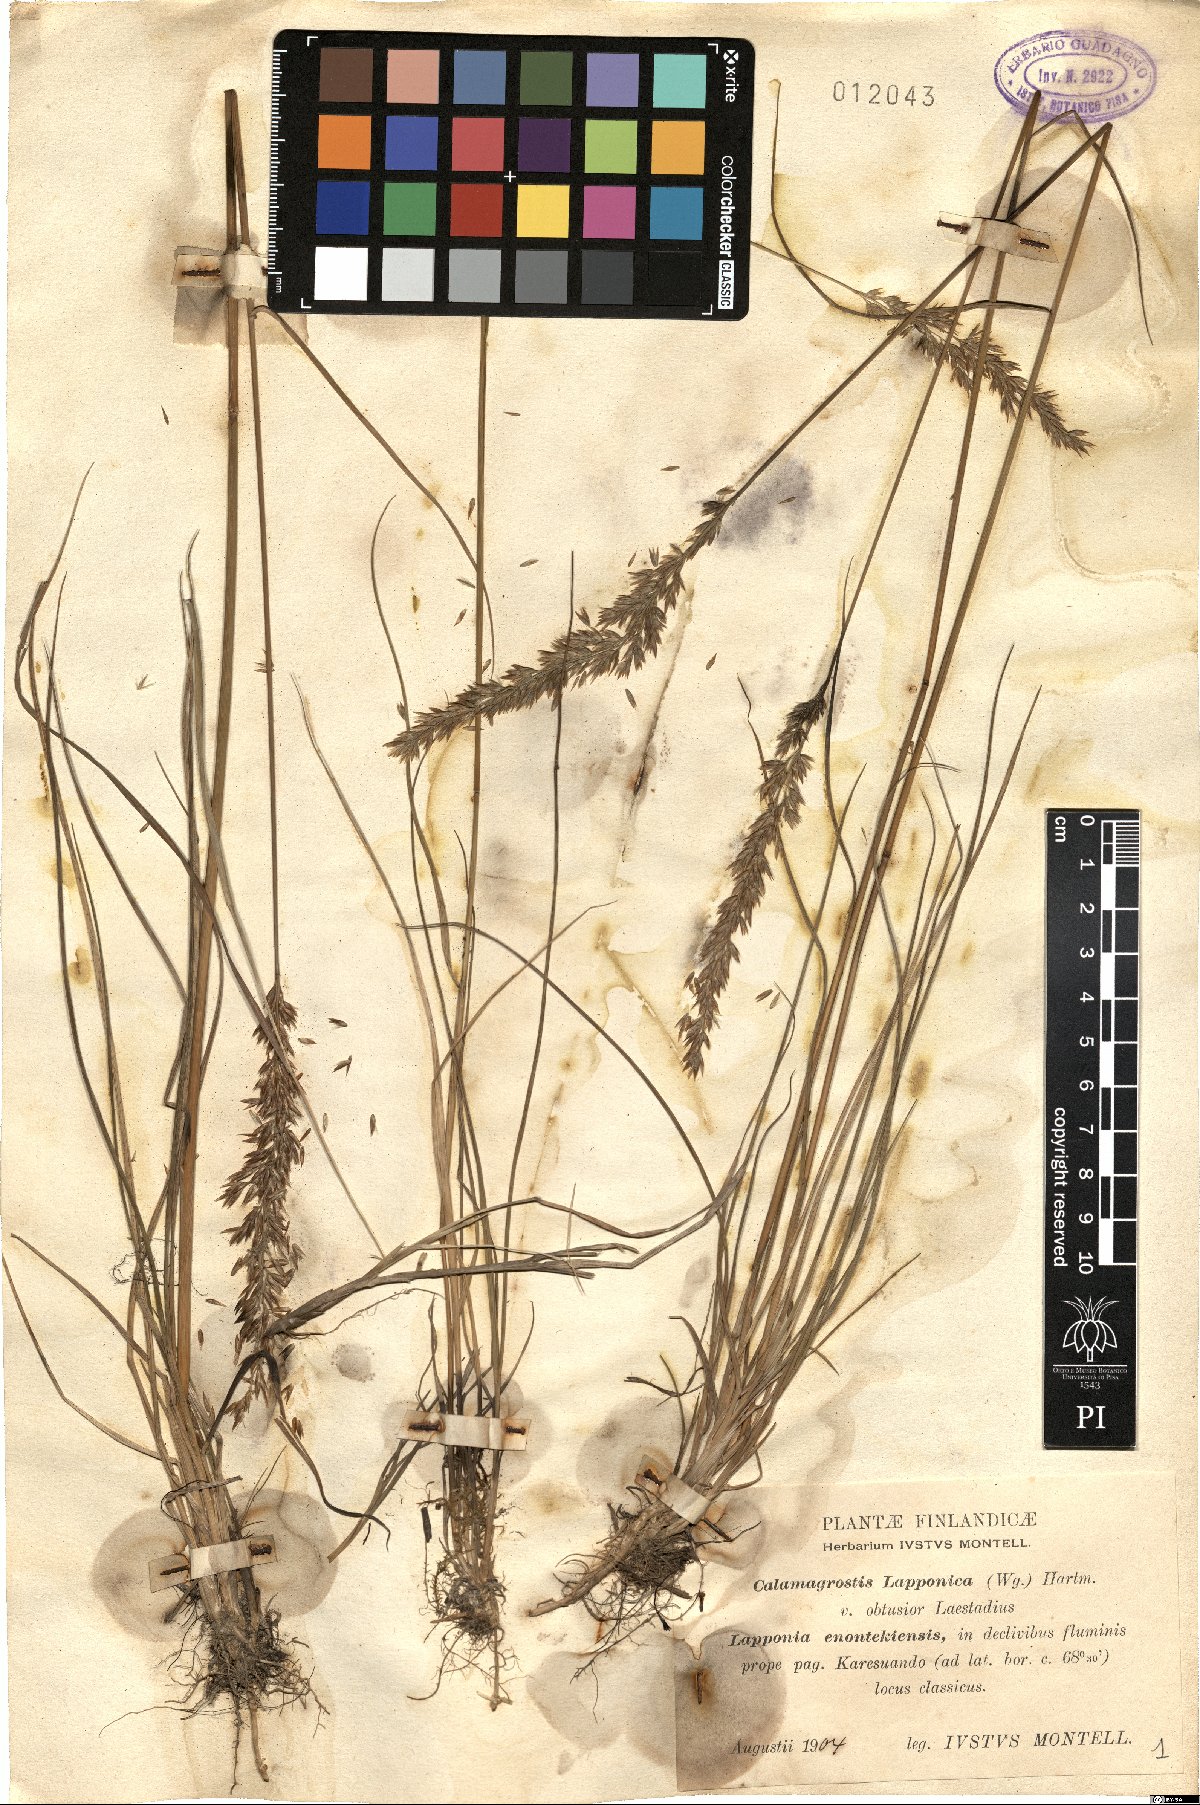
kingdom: Plantae
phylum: Tracheophyta
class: Liliopsida
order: Poales
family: Poaceae
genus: Calamagrostis
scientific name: Calamagrostis lapponica
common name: Lapland reedgrass
